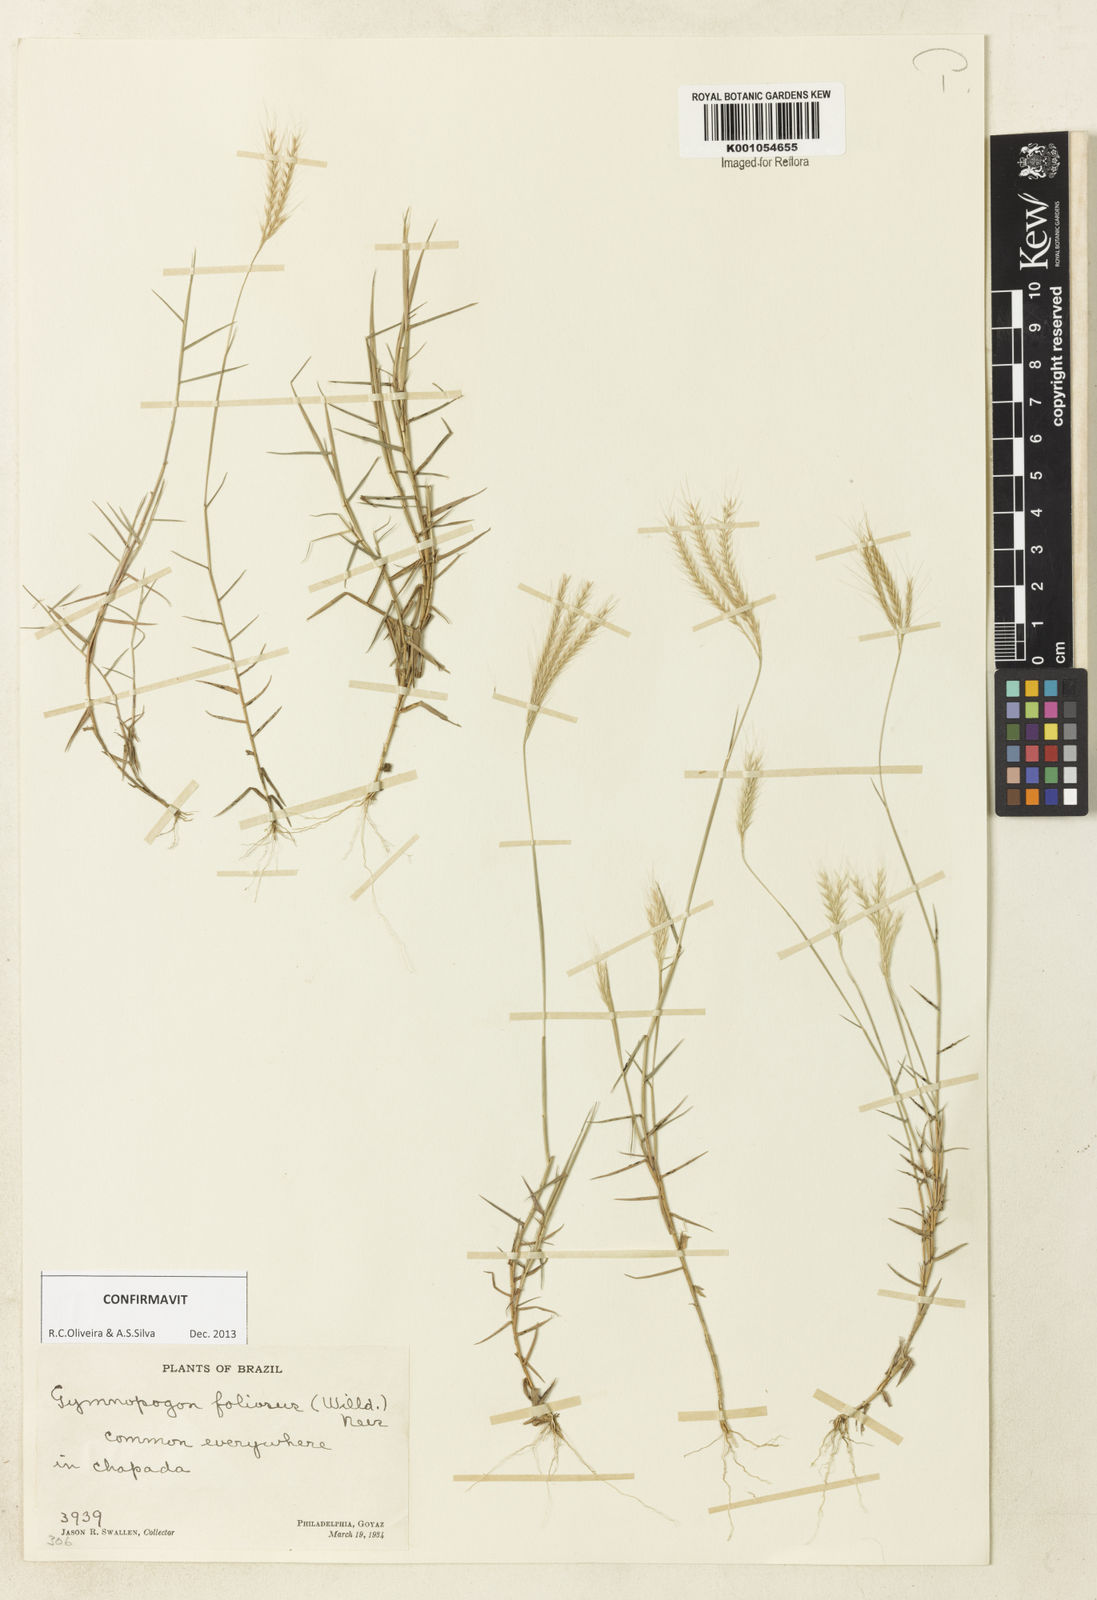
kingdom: Plantae
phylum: Tracheophyta
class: Liliopsida
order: Poales
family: Poaceae
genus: Gymnopogon
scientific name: Gymnopogon foliosus
